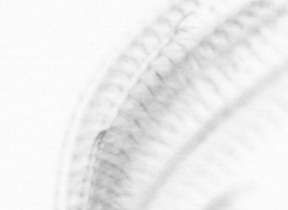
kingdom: Animalia
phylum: Arthropoda
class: Maxillopoda
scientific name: Maxillopoda
